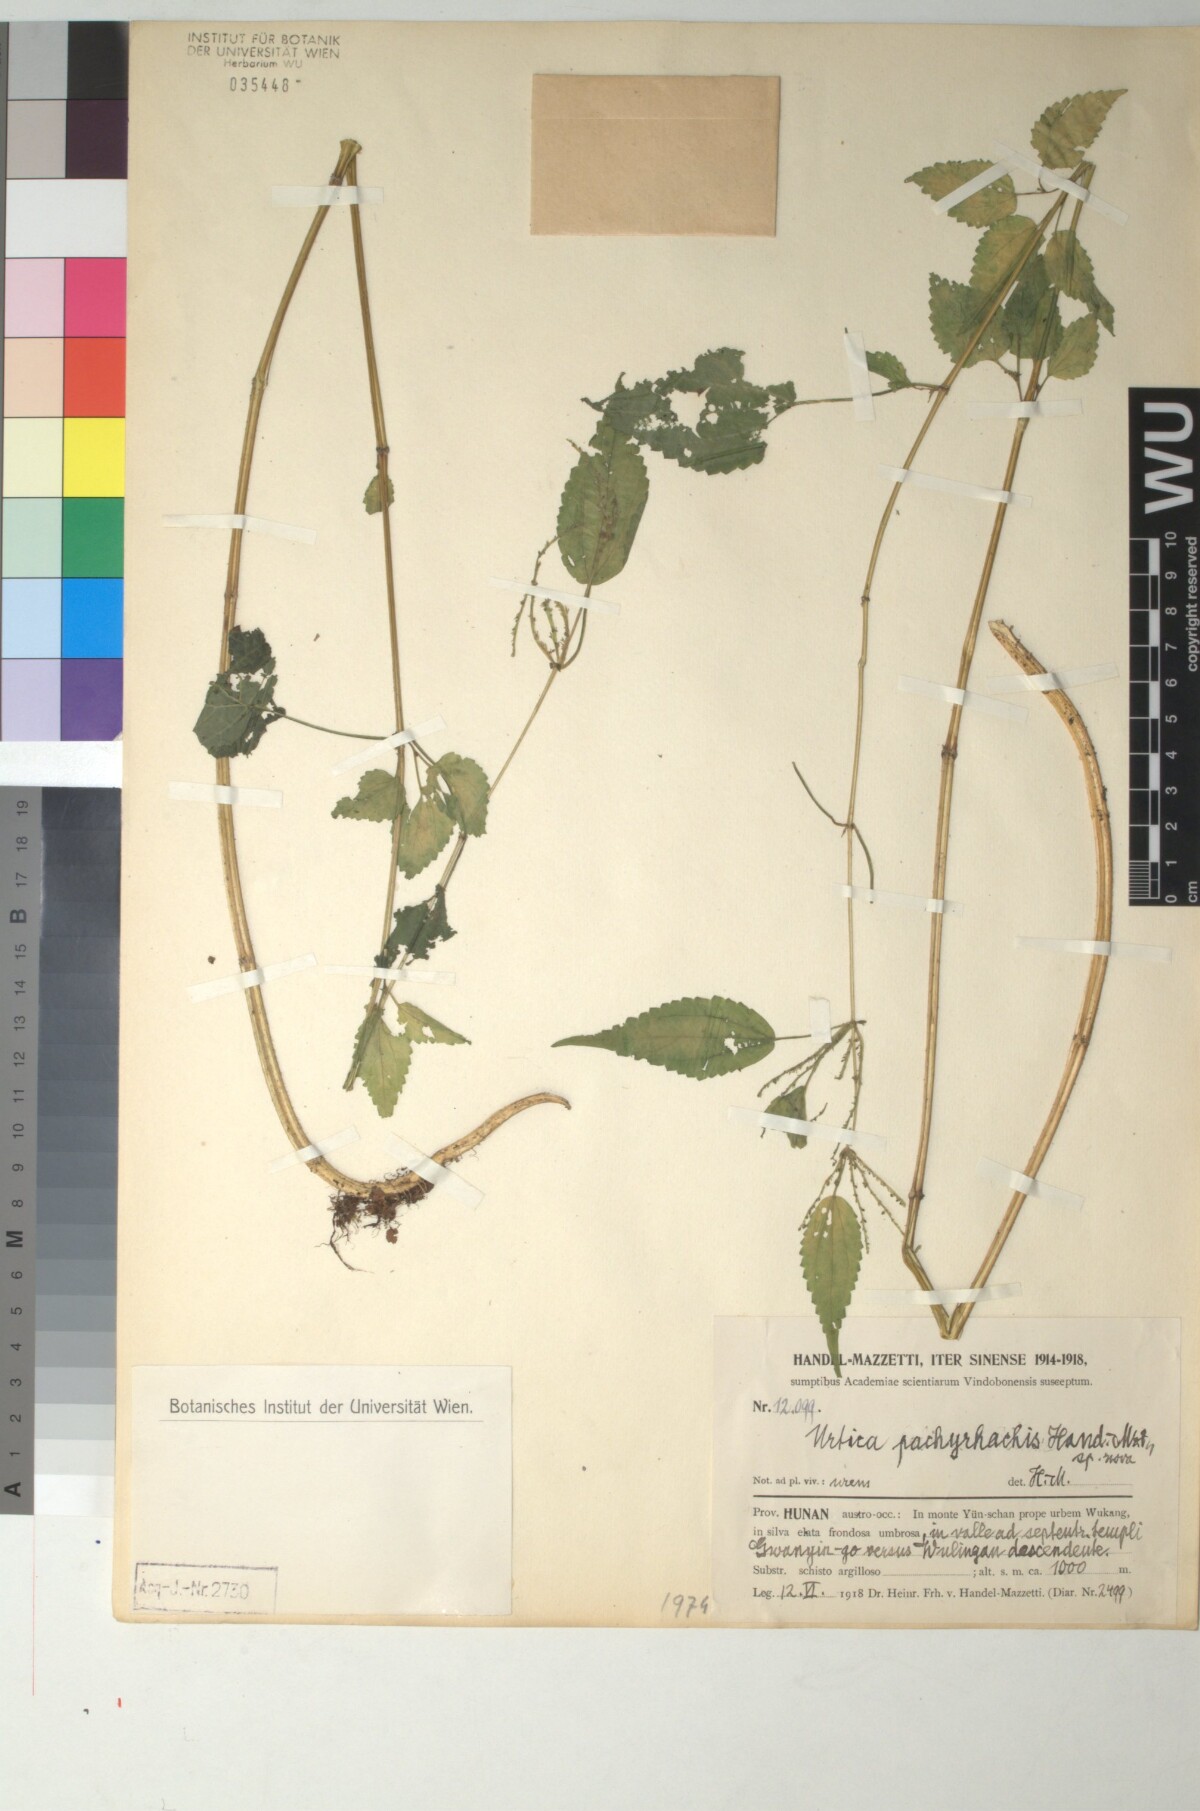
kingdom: Plantae
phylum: Tracheophyta
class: Magnoliopsida
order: Rosales
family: Urticaceae
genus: Urtica
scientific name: Urtica thunbergiana
